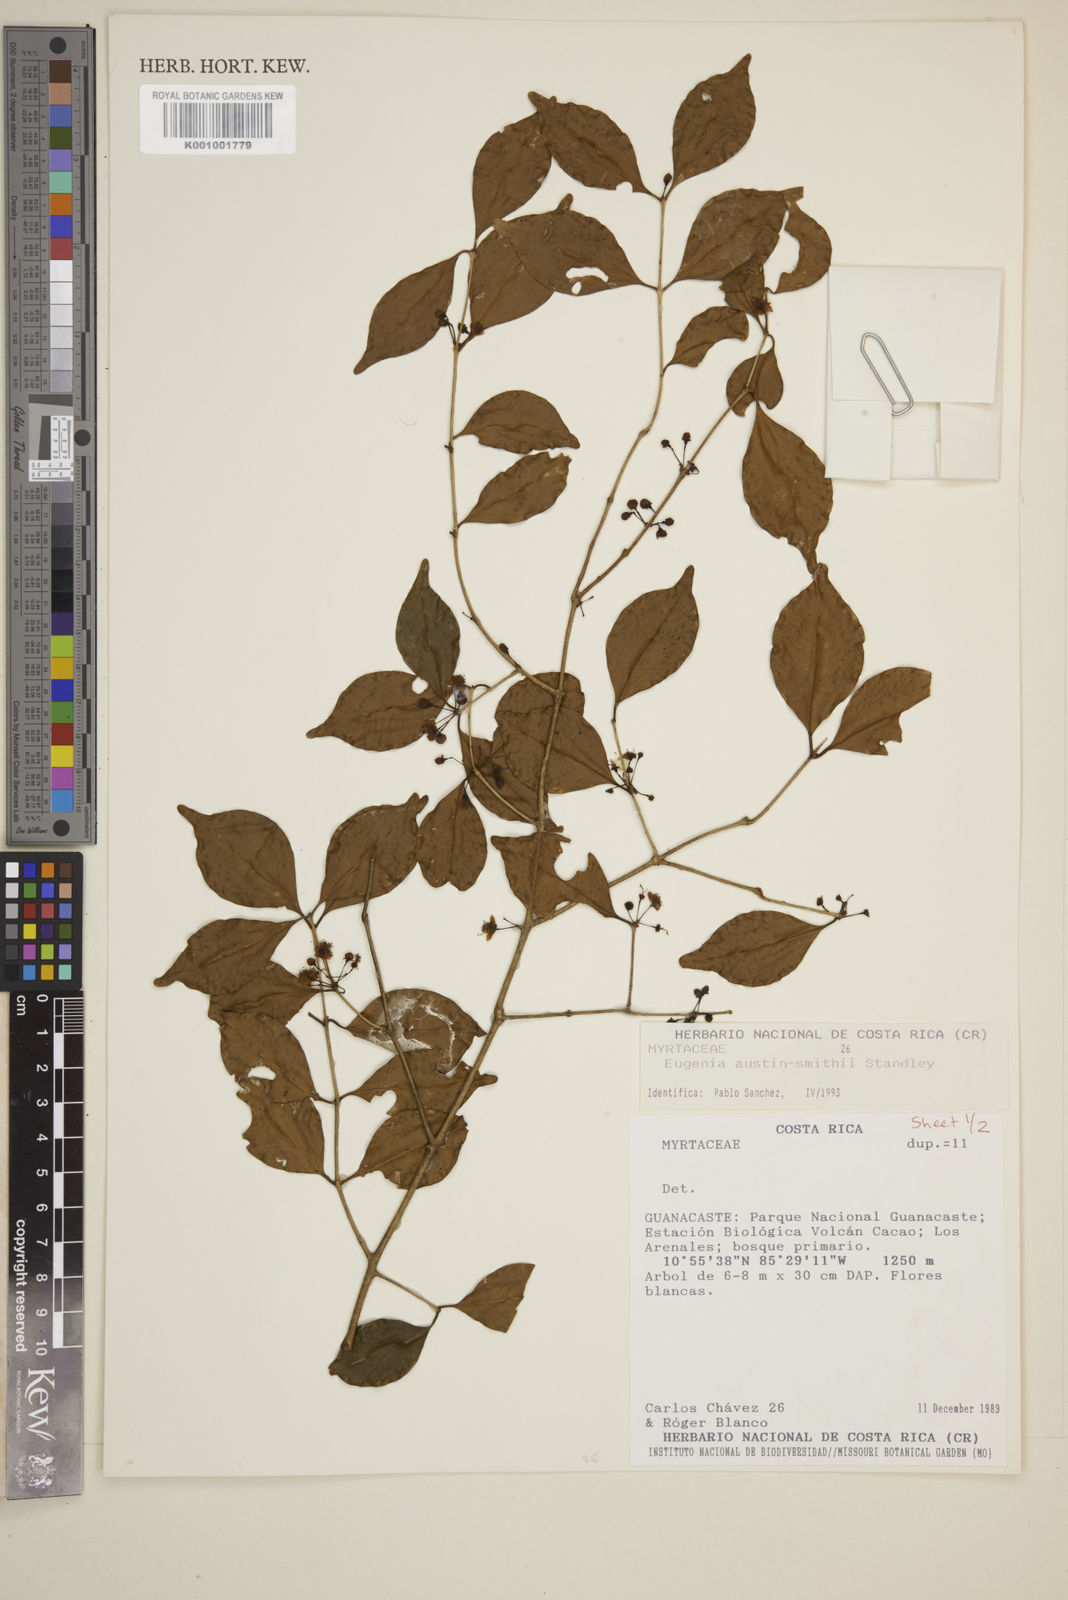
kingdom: Plantae
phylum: Tracheophyta
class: Magnoliopsida
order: Myrtales
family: Myrtaceae
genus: Eugenia
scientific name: Eugenia austin-smithii
